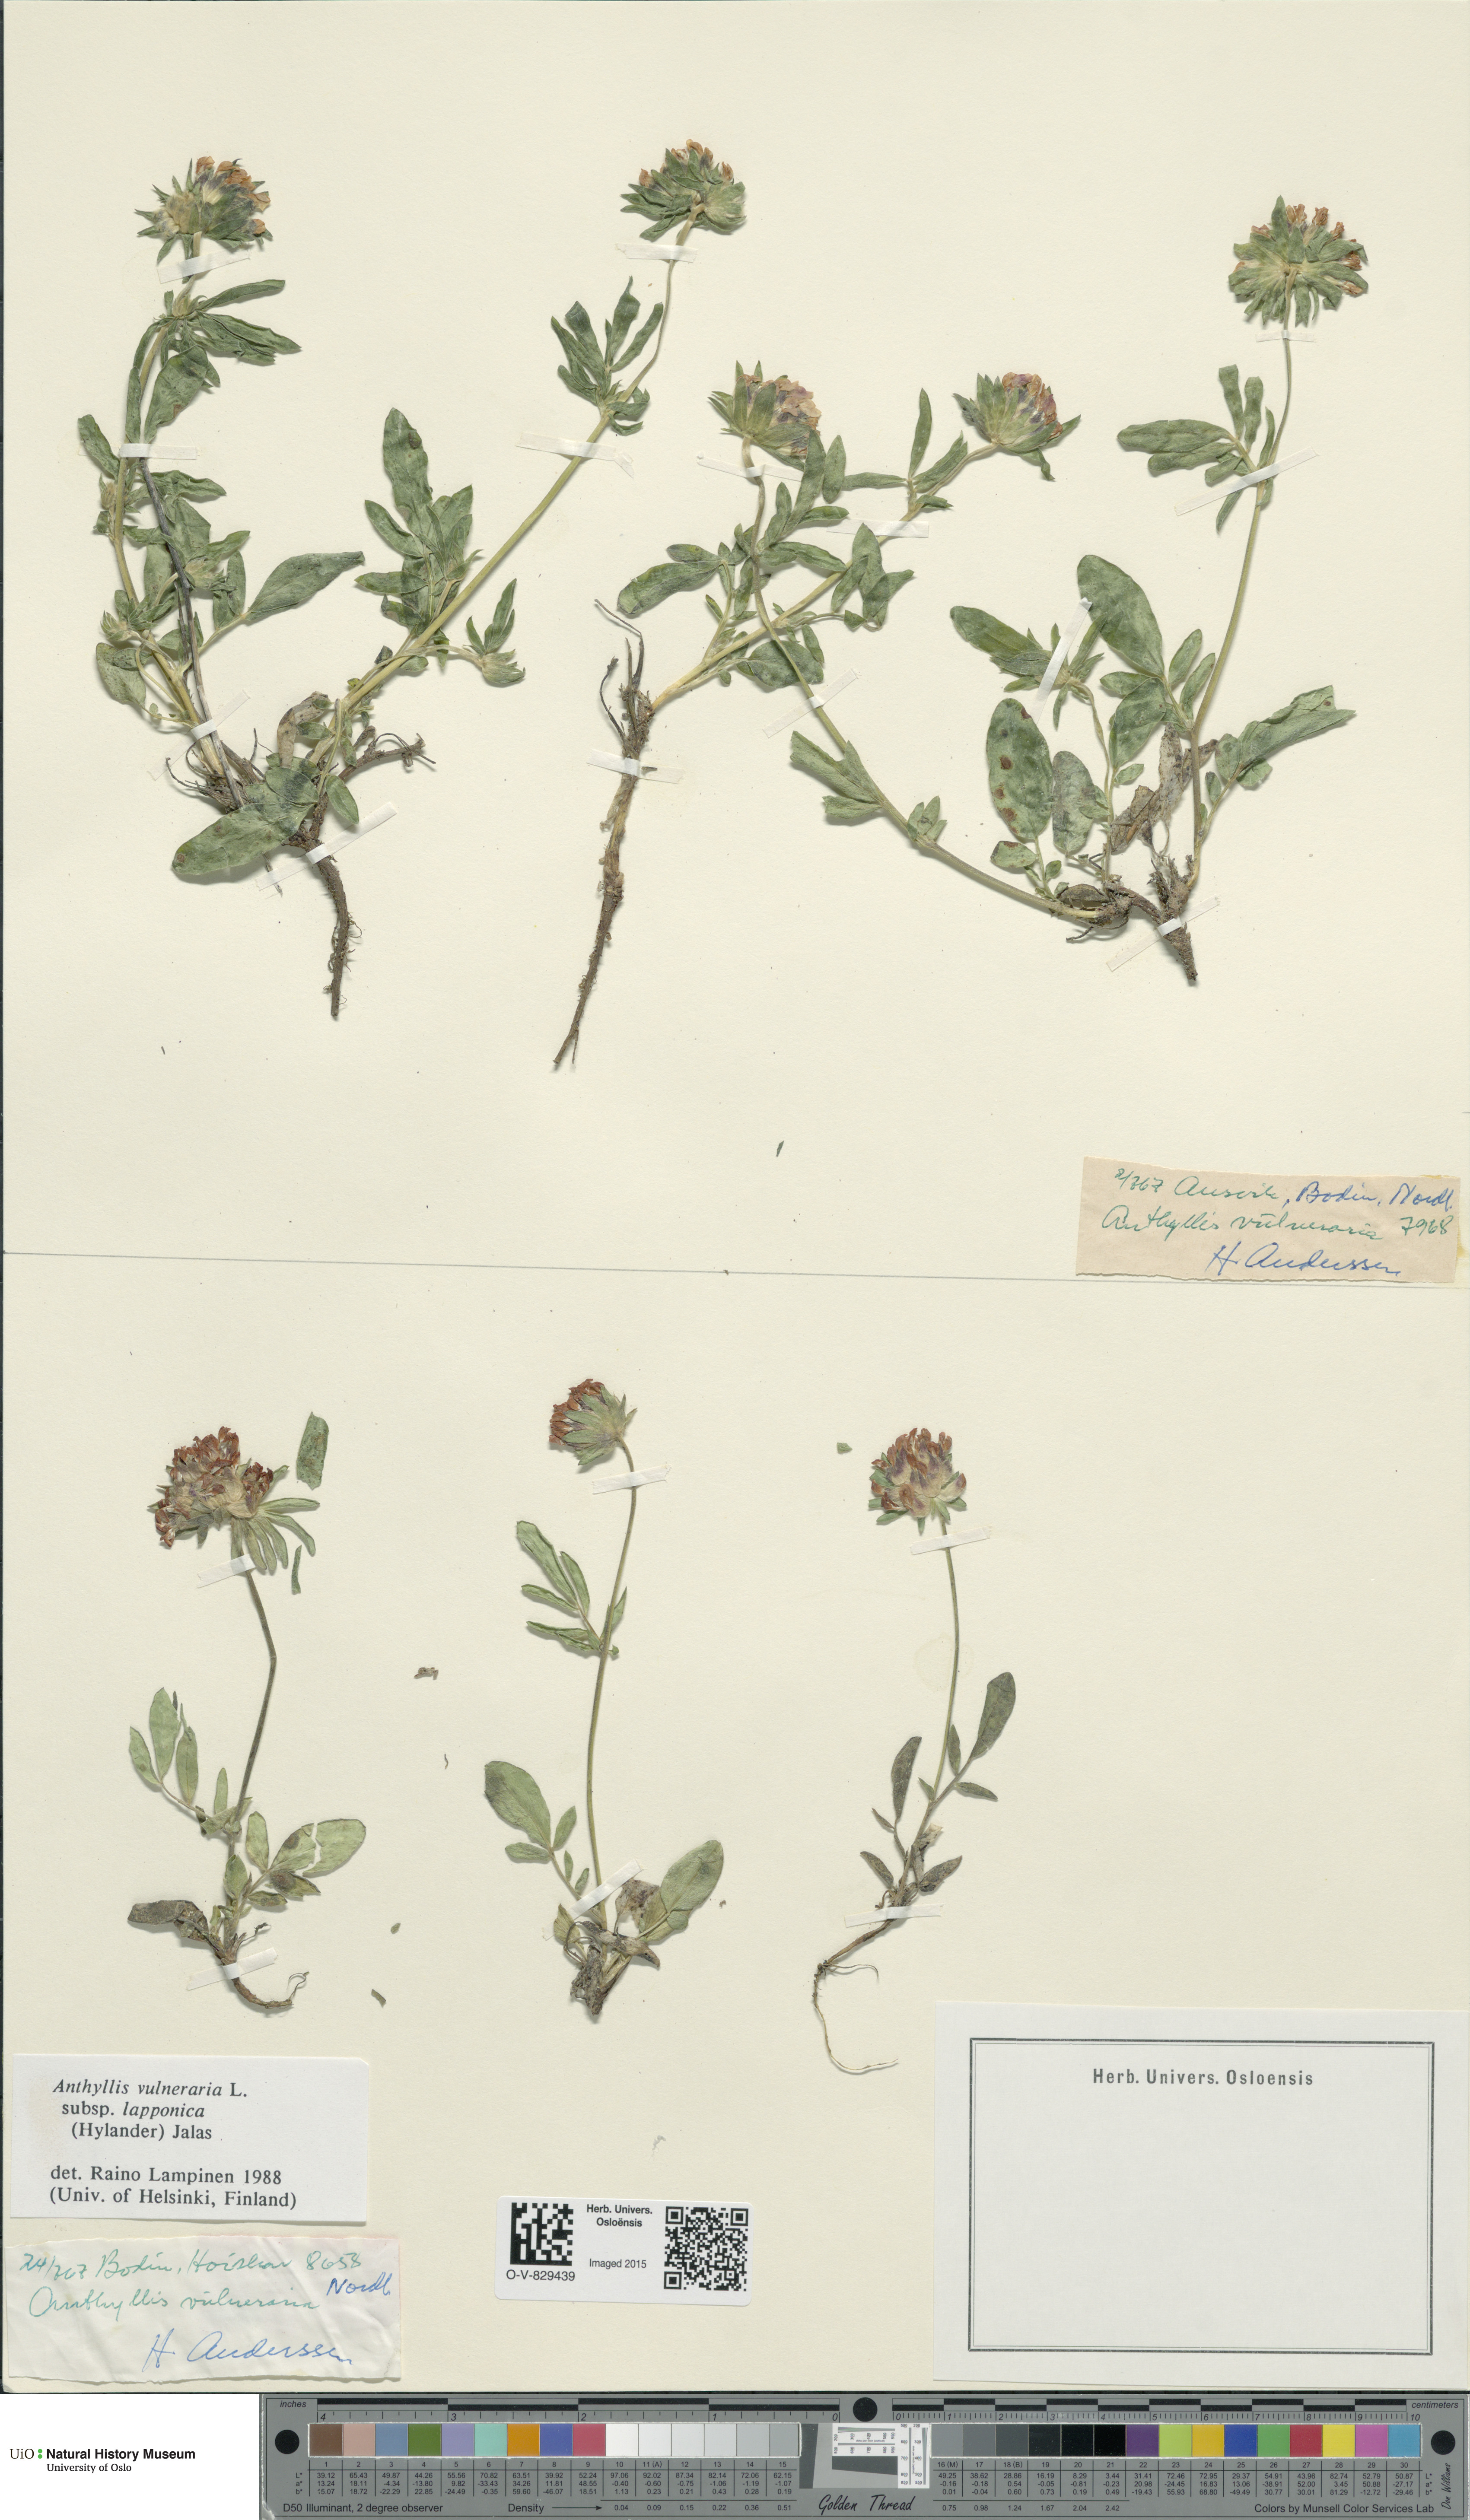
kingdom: Plantae
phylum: Tracheophyta
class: Magnoliopsida
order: Fabales
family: Fabaceae
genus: Anthyllis
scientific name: Anthyllis vulneraria
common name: Kidney vetch
